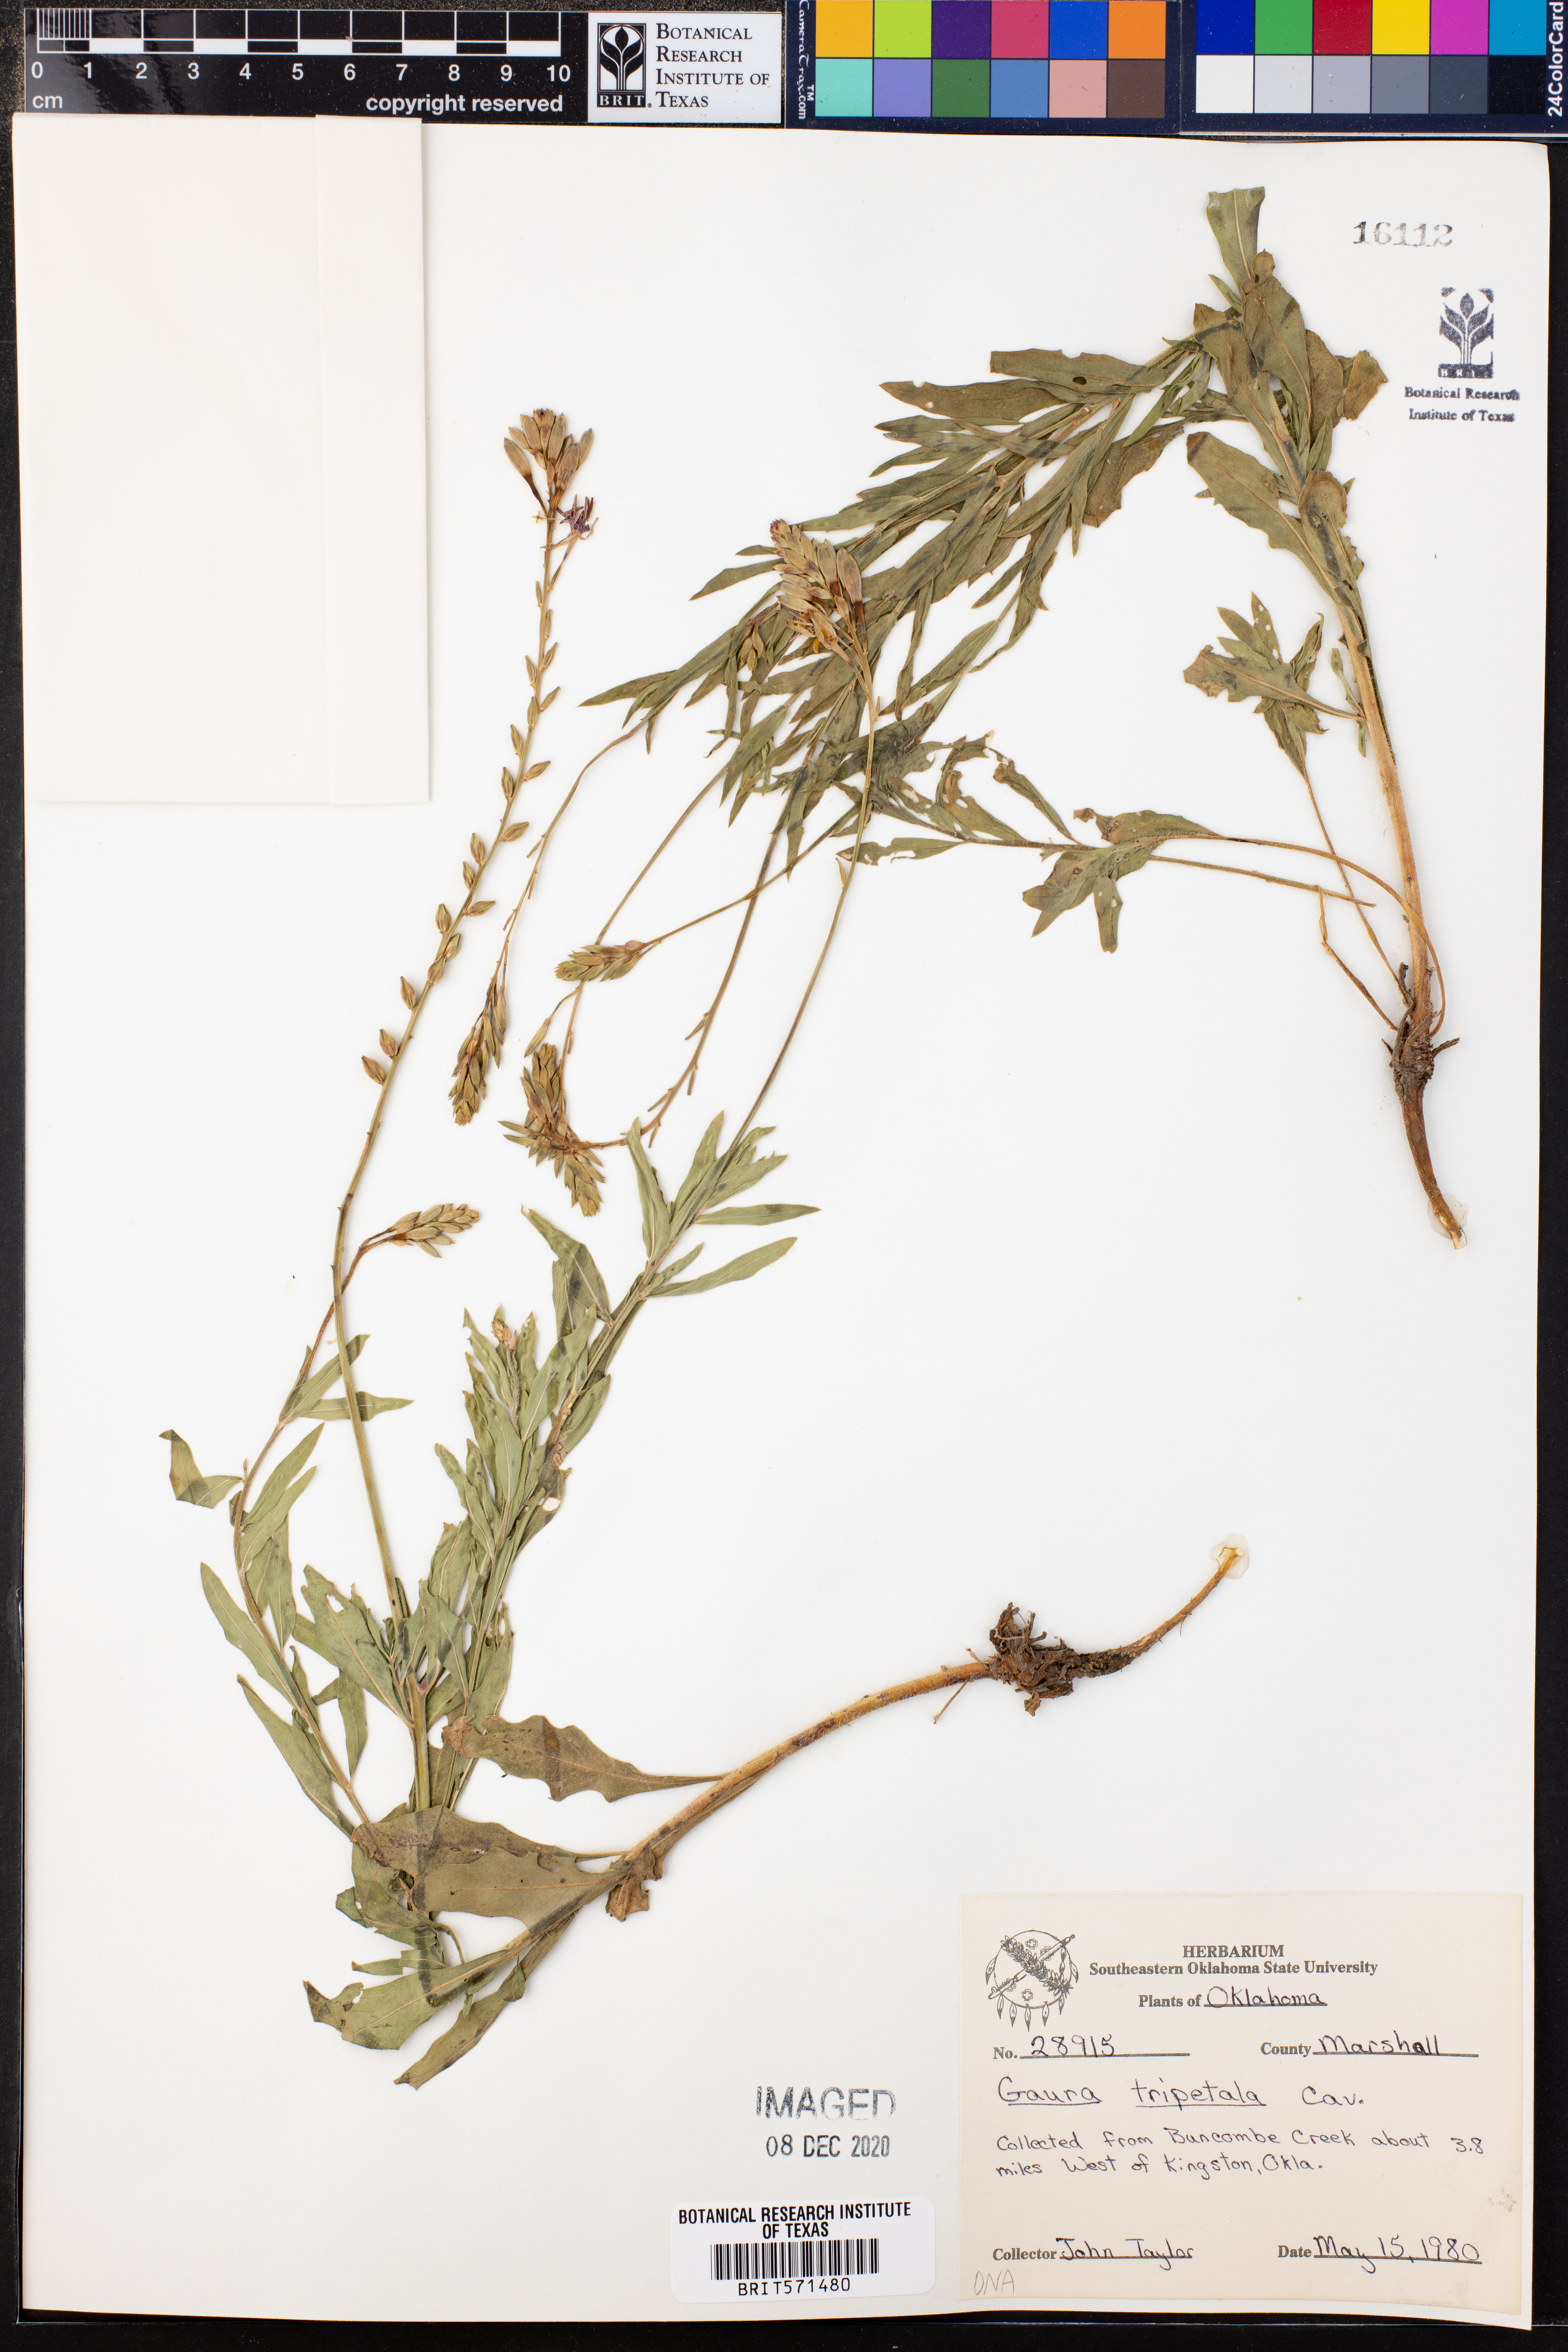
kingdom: Plantae
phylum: Tracheophyta
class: Magnoliopsida
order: Myrtales
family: Onagraceae
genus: Oenothera
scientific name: Oenothera hexandra
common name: Harlequinbush
